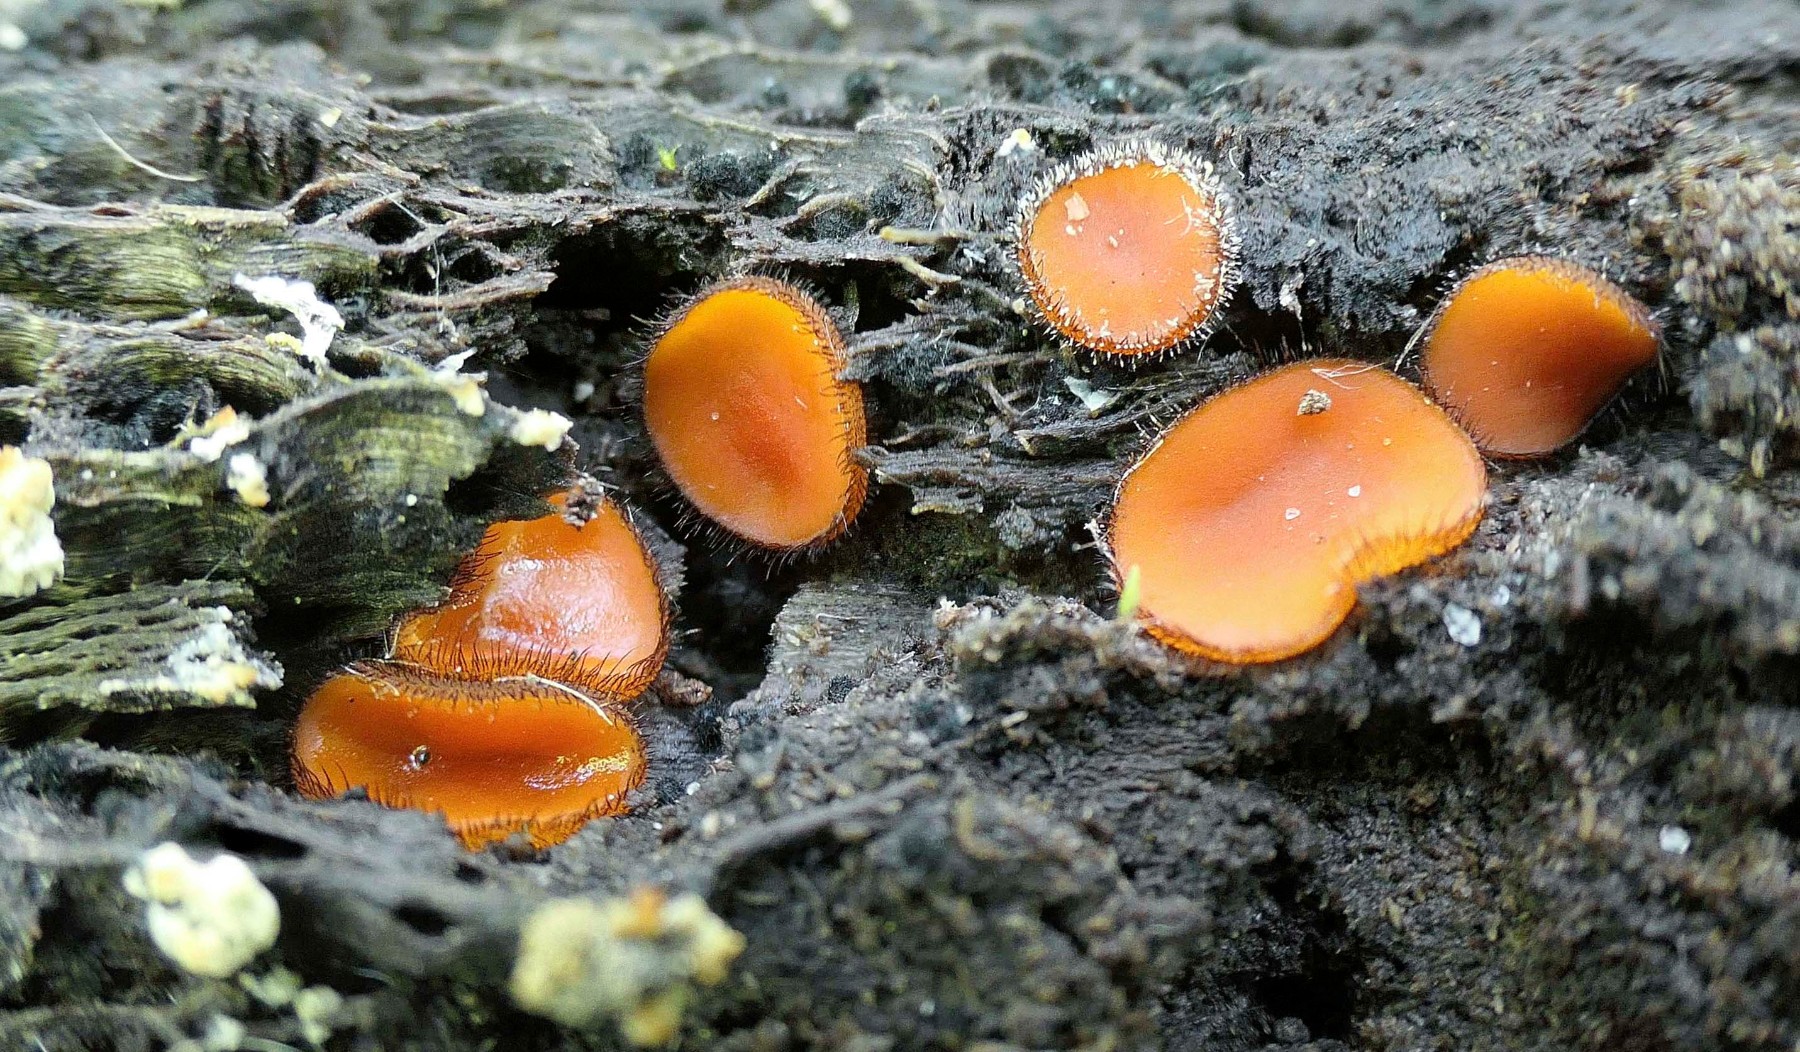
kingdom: Fungi
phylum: Ascomycota
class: Pezizomycetes
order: Pezizales
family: Pyronemataceae
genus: Scutellinia
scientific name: Scutellinia scutellata
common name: frynset skjoldbæger
